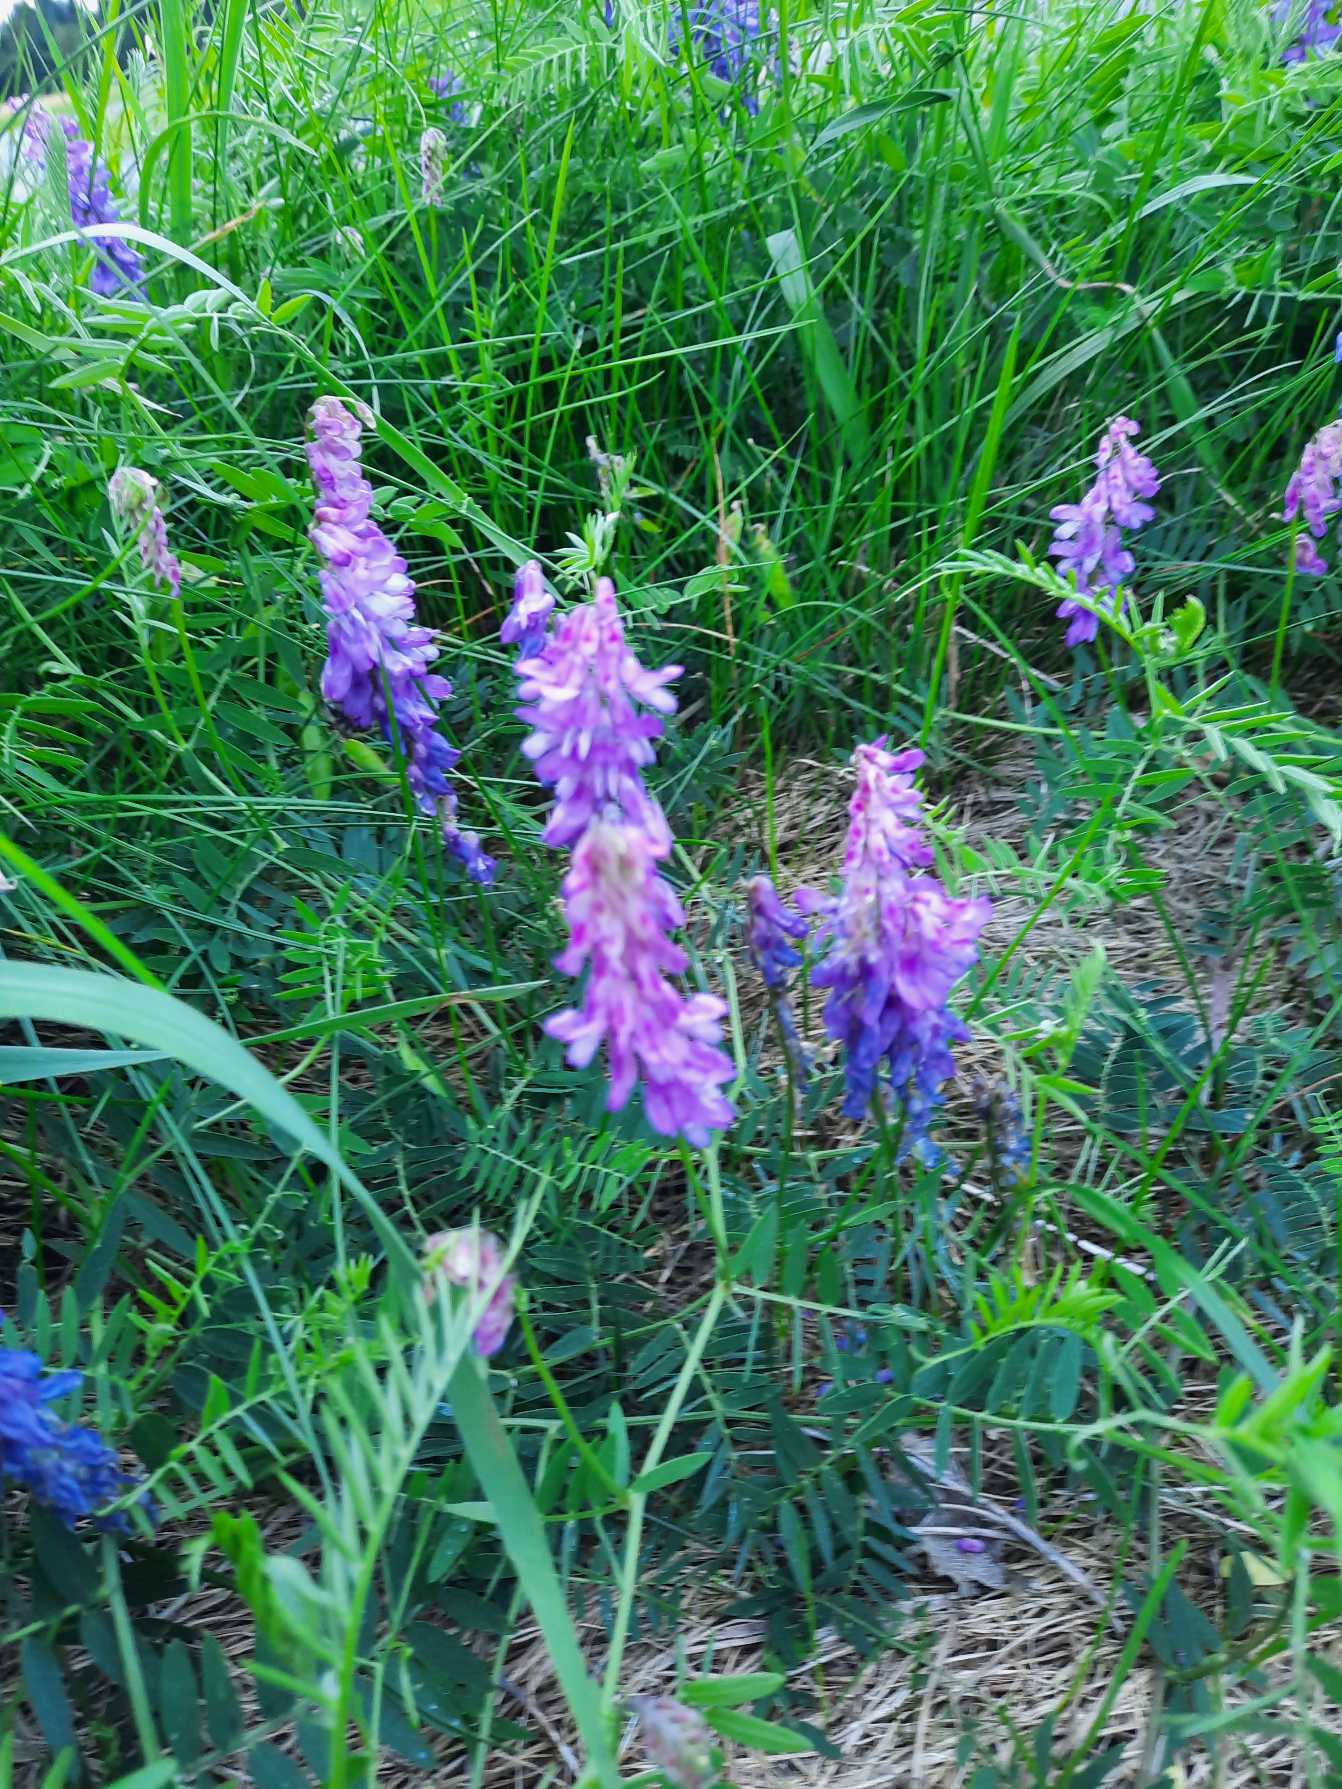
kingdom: Plantae
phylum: Tracheophyta
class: Magnoliopsida
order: Fabales
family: Fabaceae
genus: Vicia
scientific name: Vicia cracca
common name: Muse-vikke
